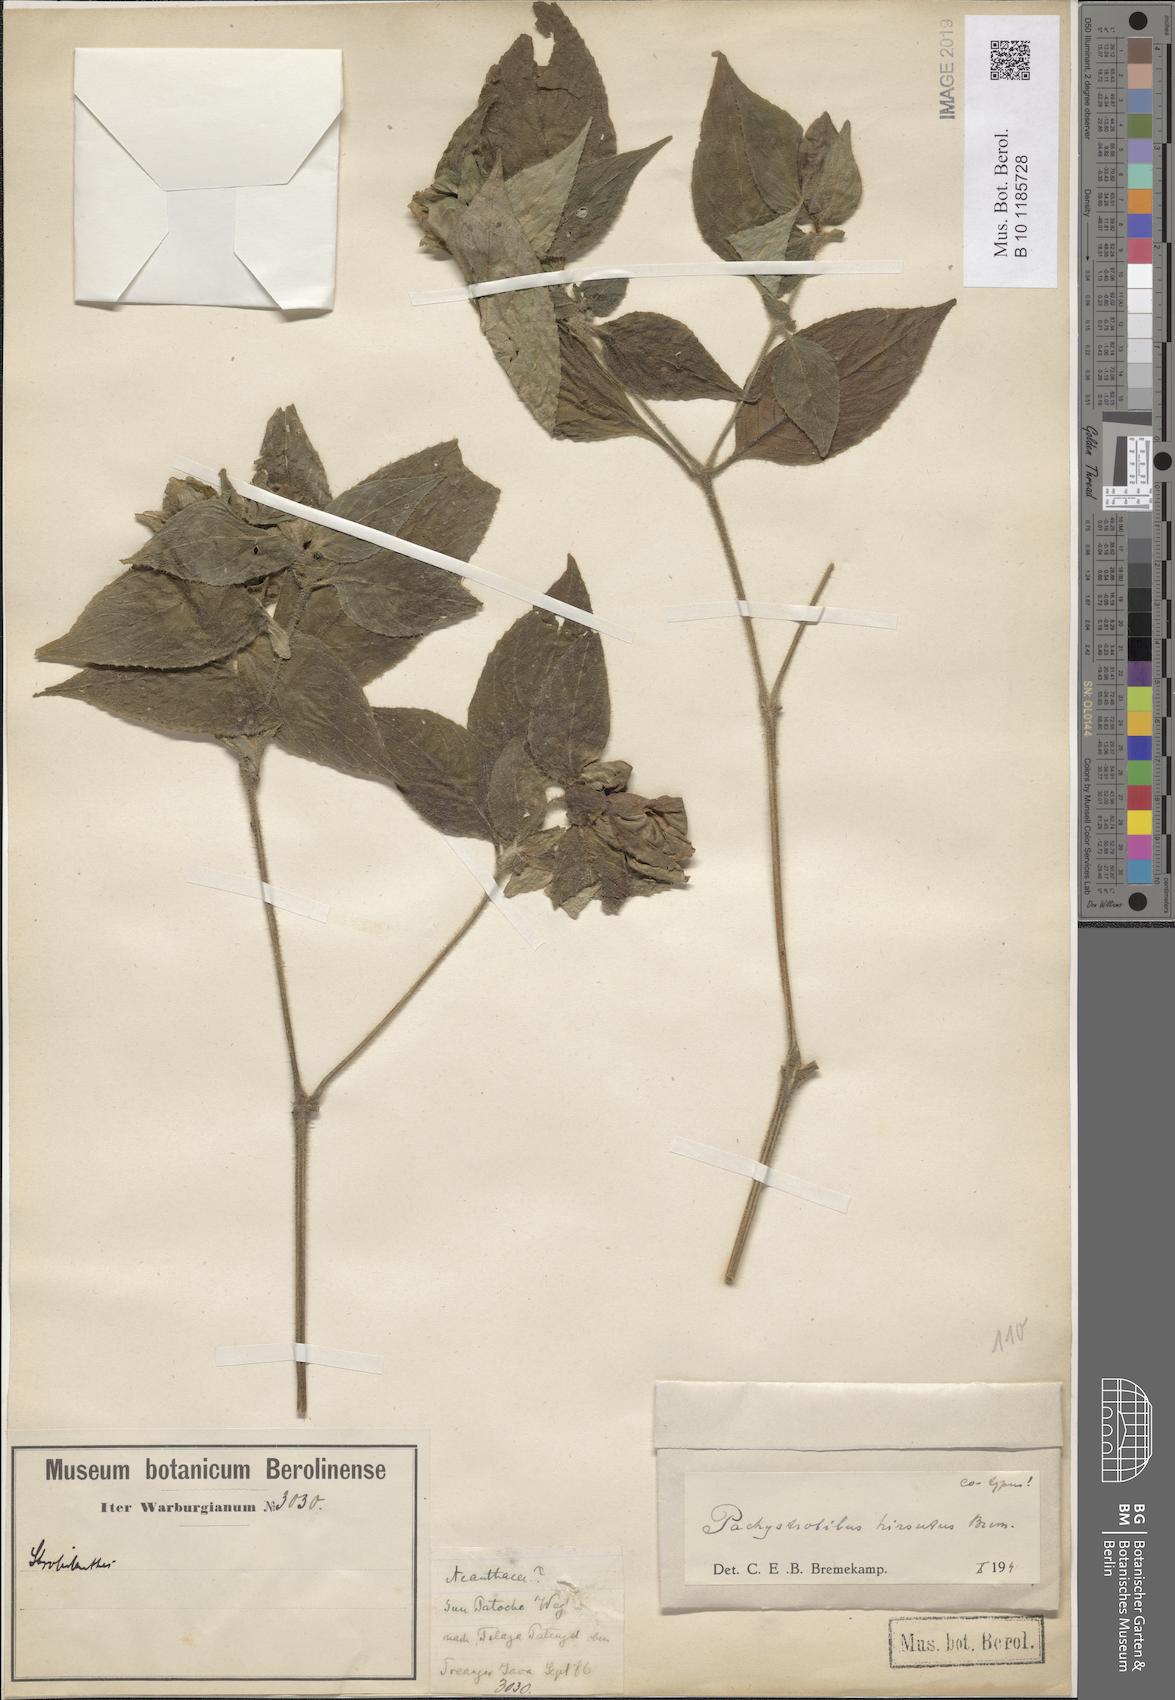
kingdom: Plantae
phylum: Tracheophyta
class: Magnoliopsida
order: Lamiales
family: Acanthaceae
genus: Strobilanthes
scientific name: Strobilanthes warburgii
